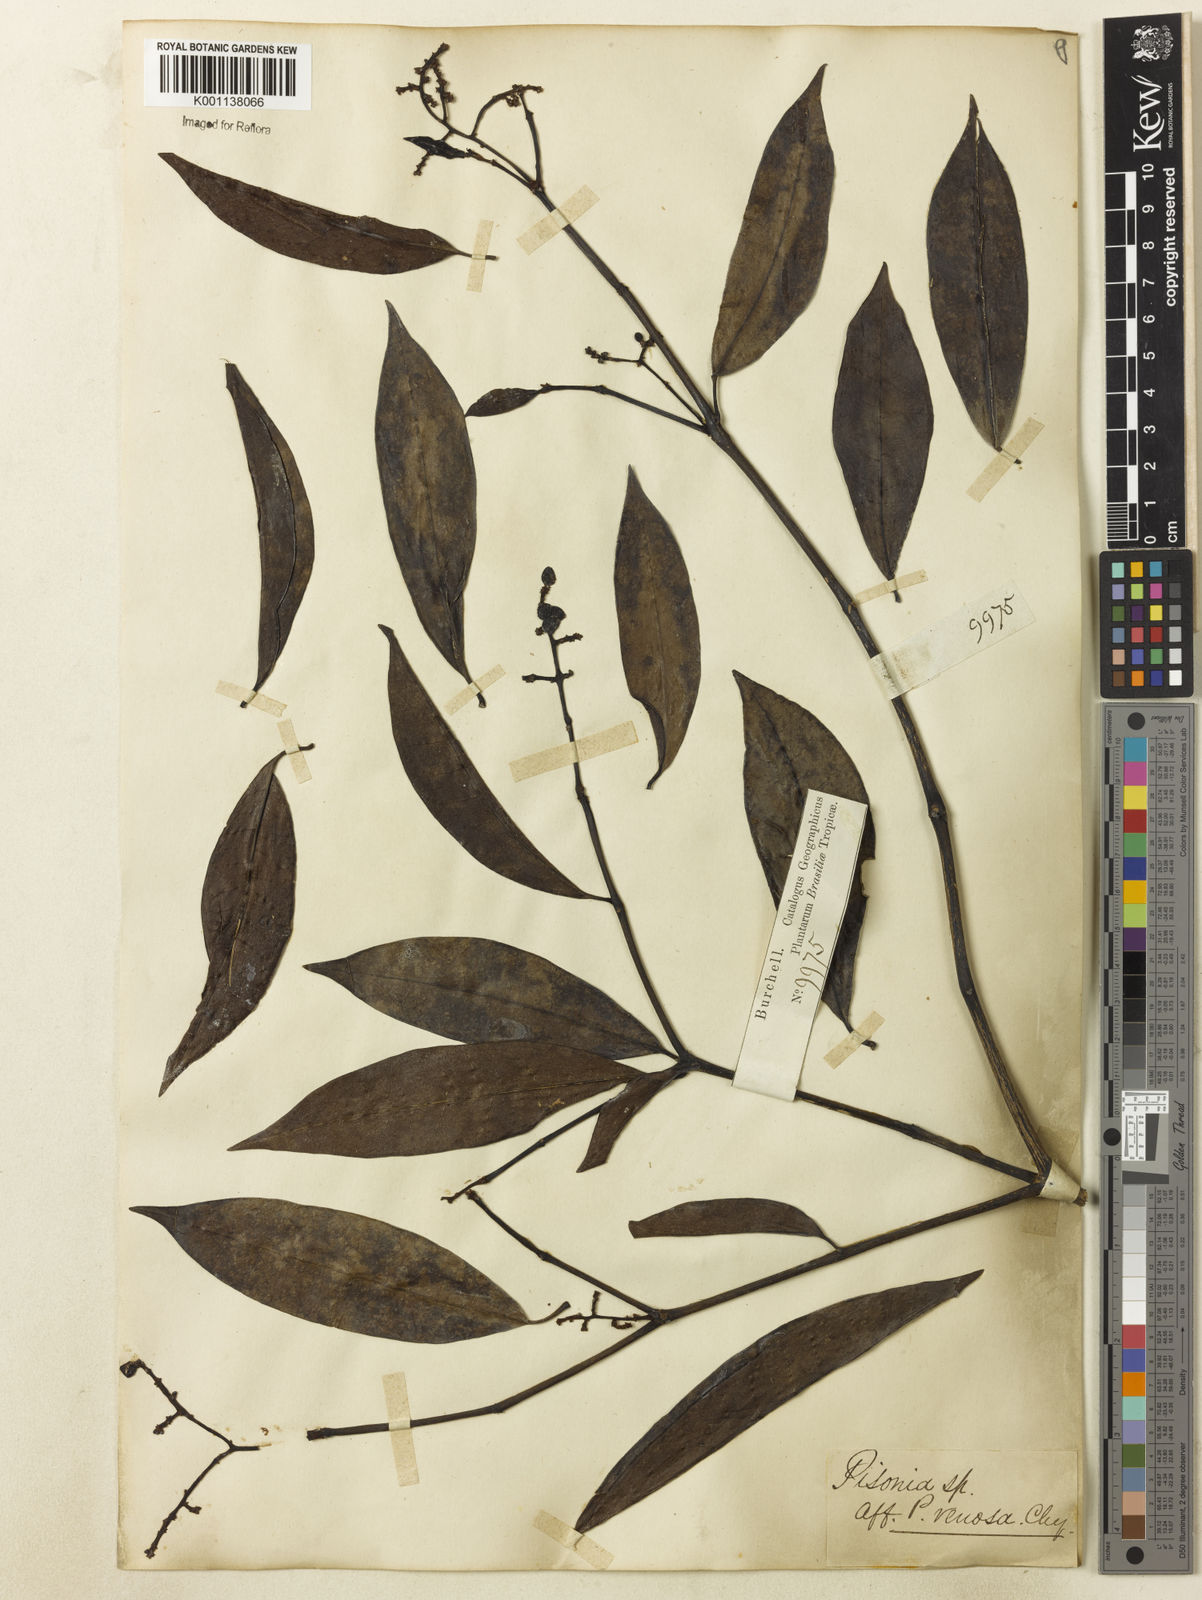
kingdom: Plantae
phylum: Tracheophyta
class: Magnoliopsida
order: Caryophyllales
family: Nyctaginaceae
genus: Neea
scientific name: Neea
